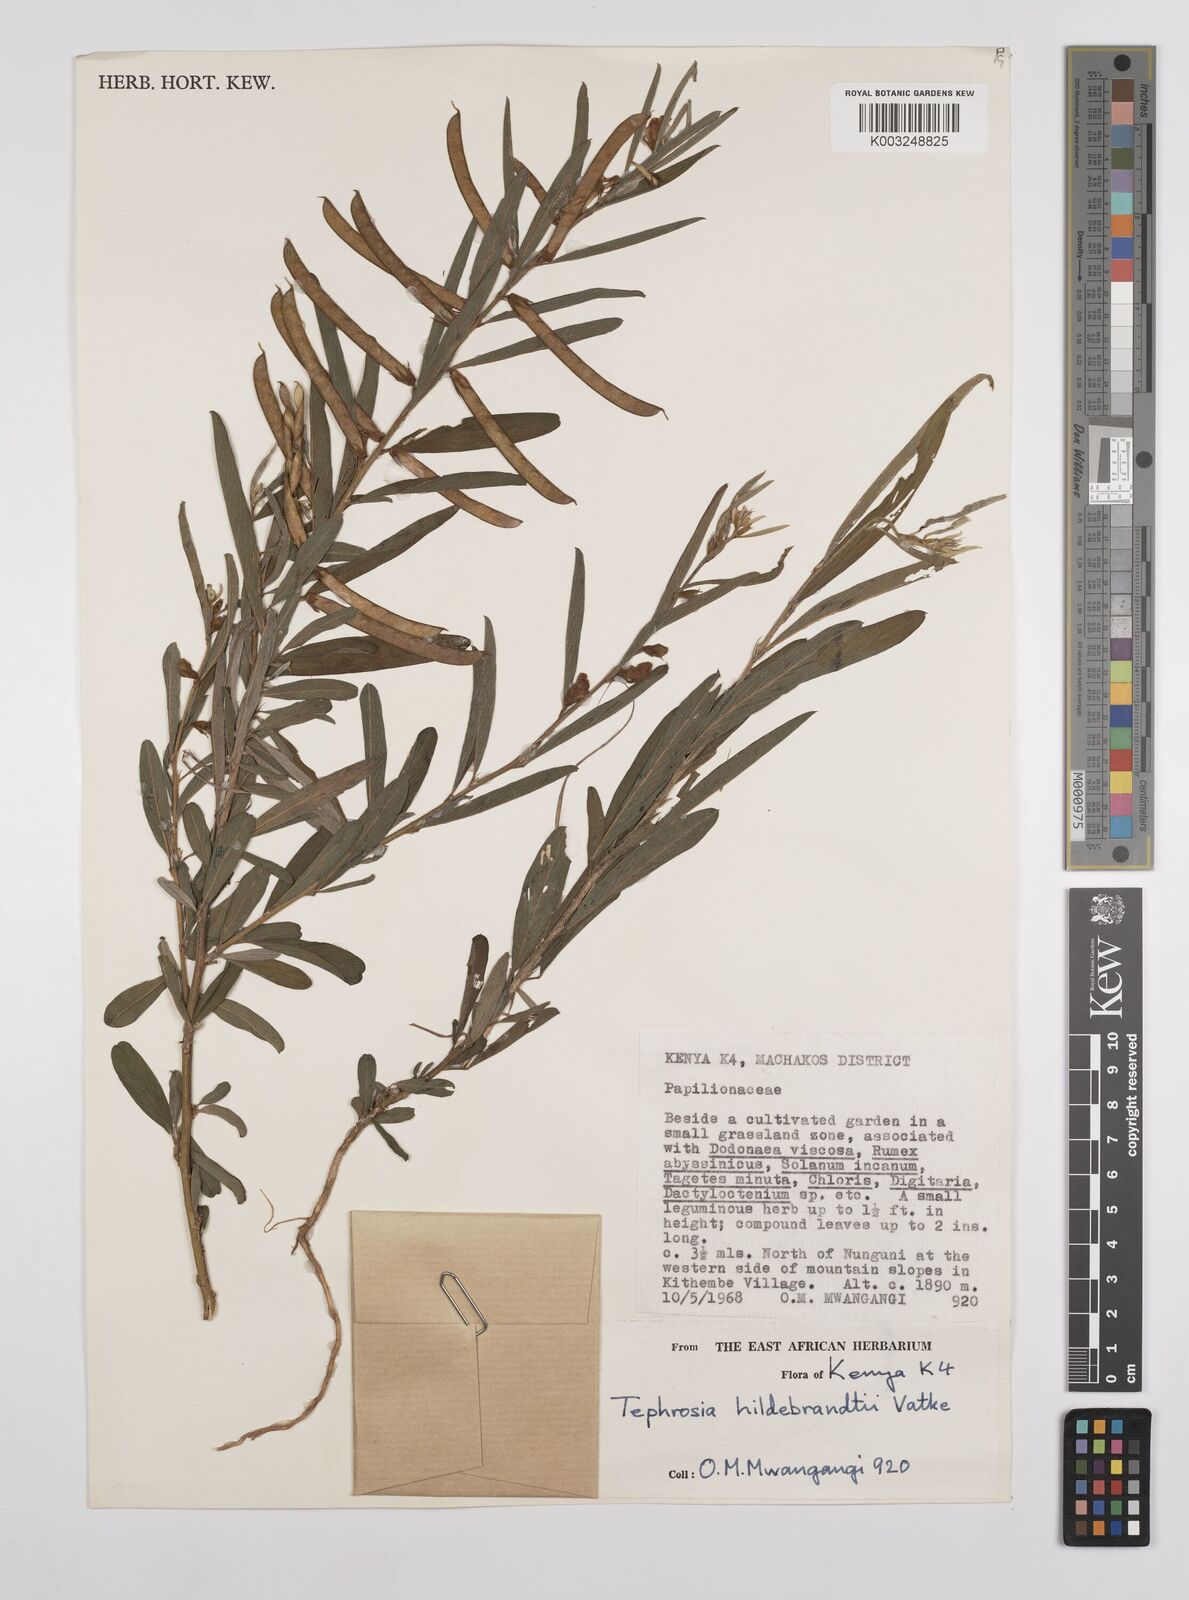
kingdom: Plantae
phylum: Tracheophyta
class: Magnoliopsida
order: Fabales
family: Fabaceae
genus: Tephrosia
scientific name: Tephrosia hildebrandtii
